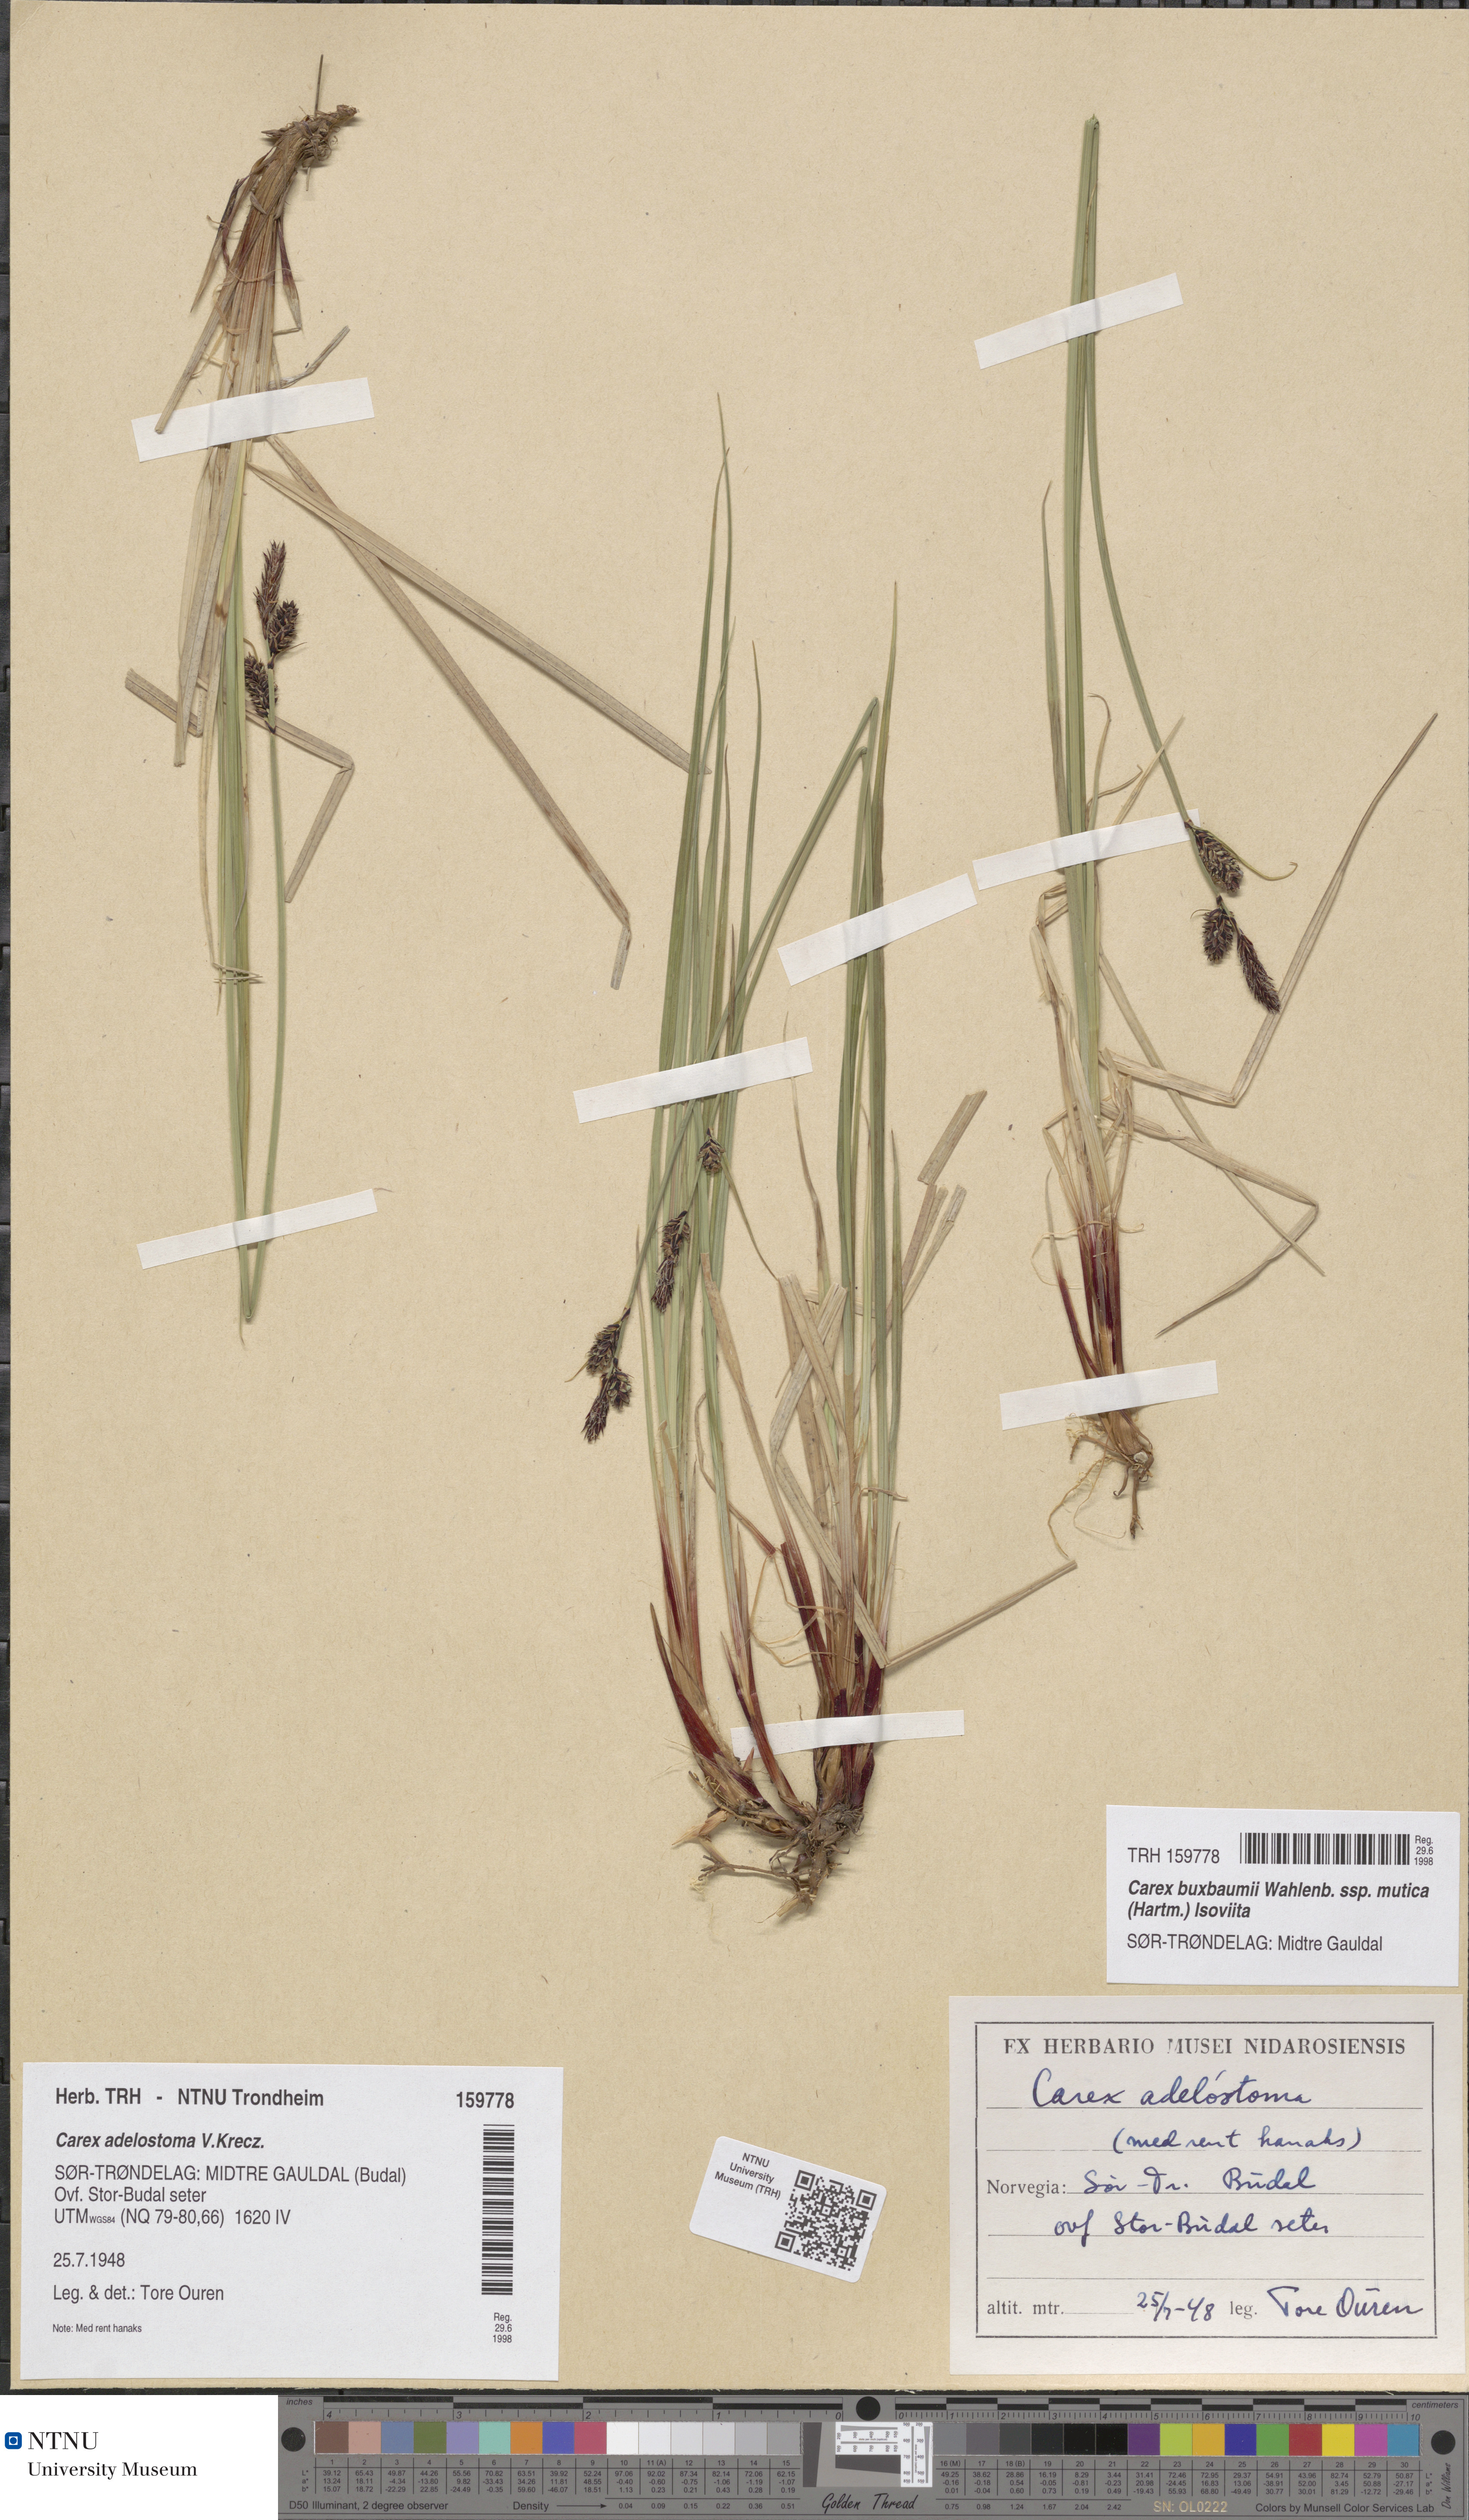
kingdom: Plantae
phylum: Tracheophyta
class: Liliopsida
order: Poales
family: Cyperaceae
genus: Carex
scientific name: Carex adelostoma
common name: Circumpolar sedge
